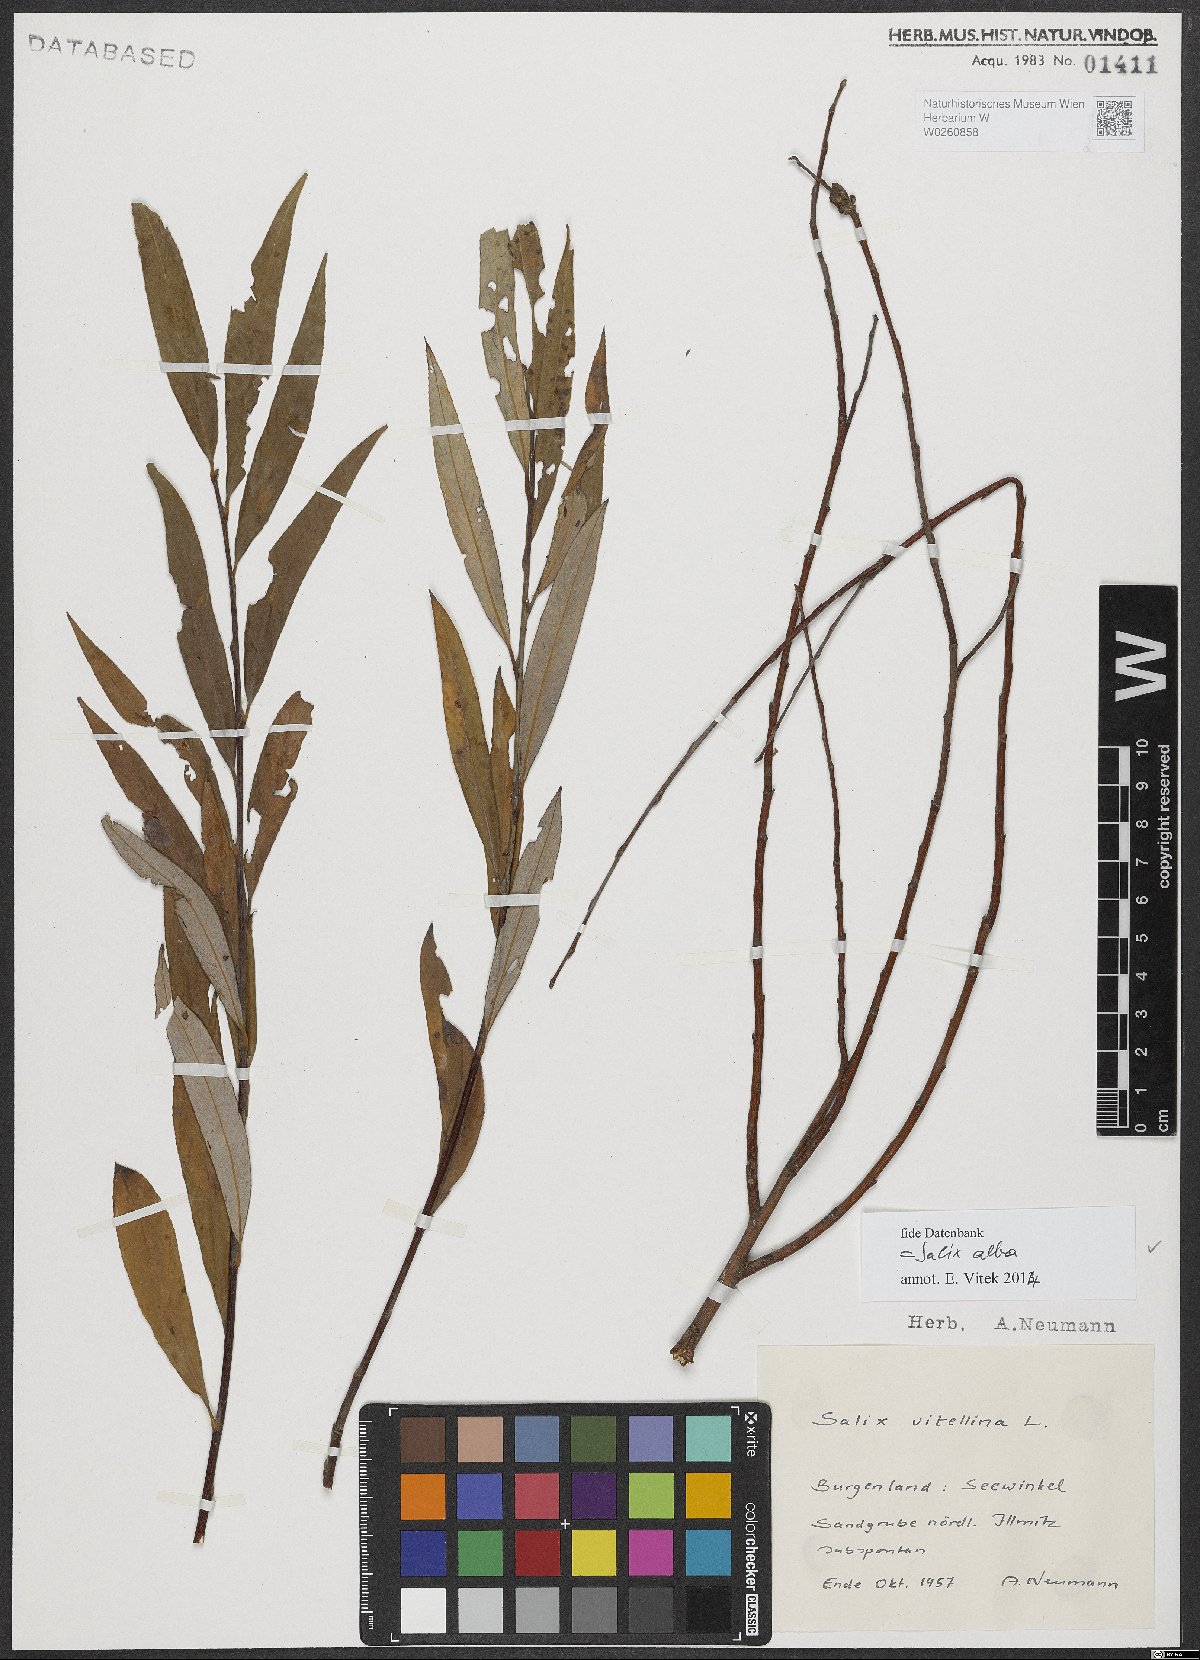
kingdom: Plantae
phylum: Tracheophyta
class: Magnoliopsida
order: Malpighiales
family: Salicaceae
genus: Salix
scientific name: Salix alba
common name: White willow
